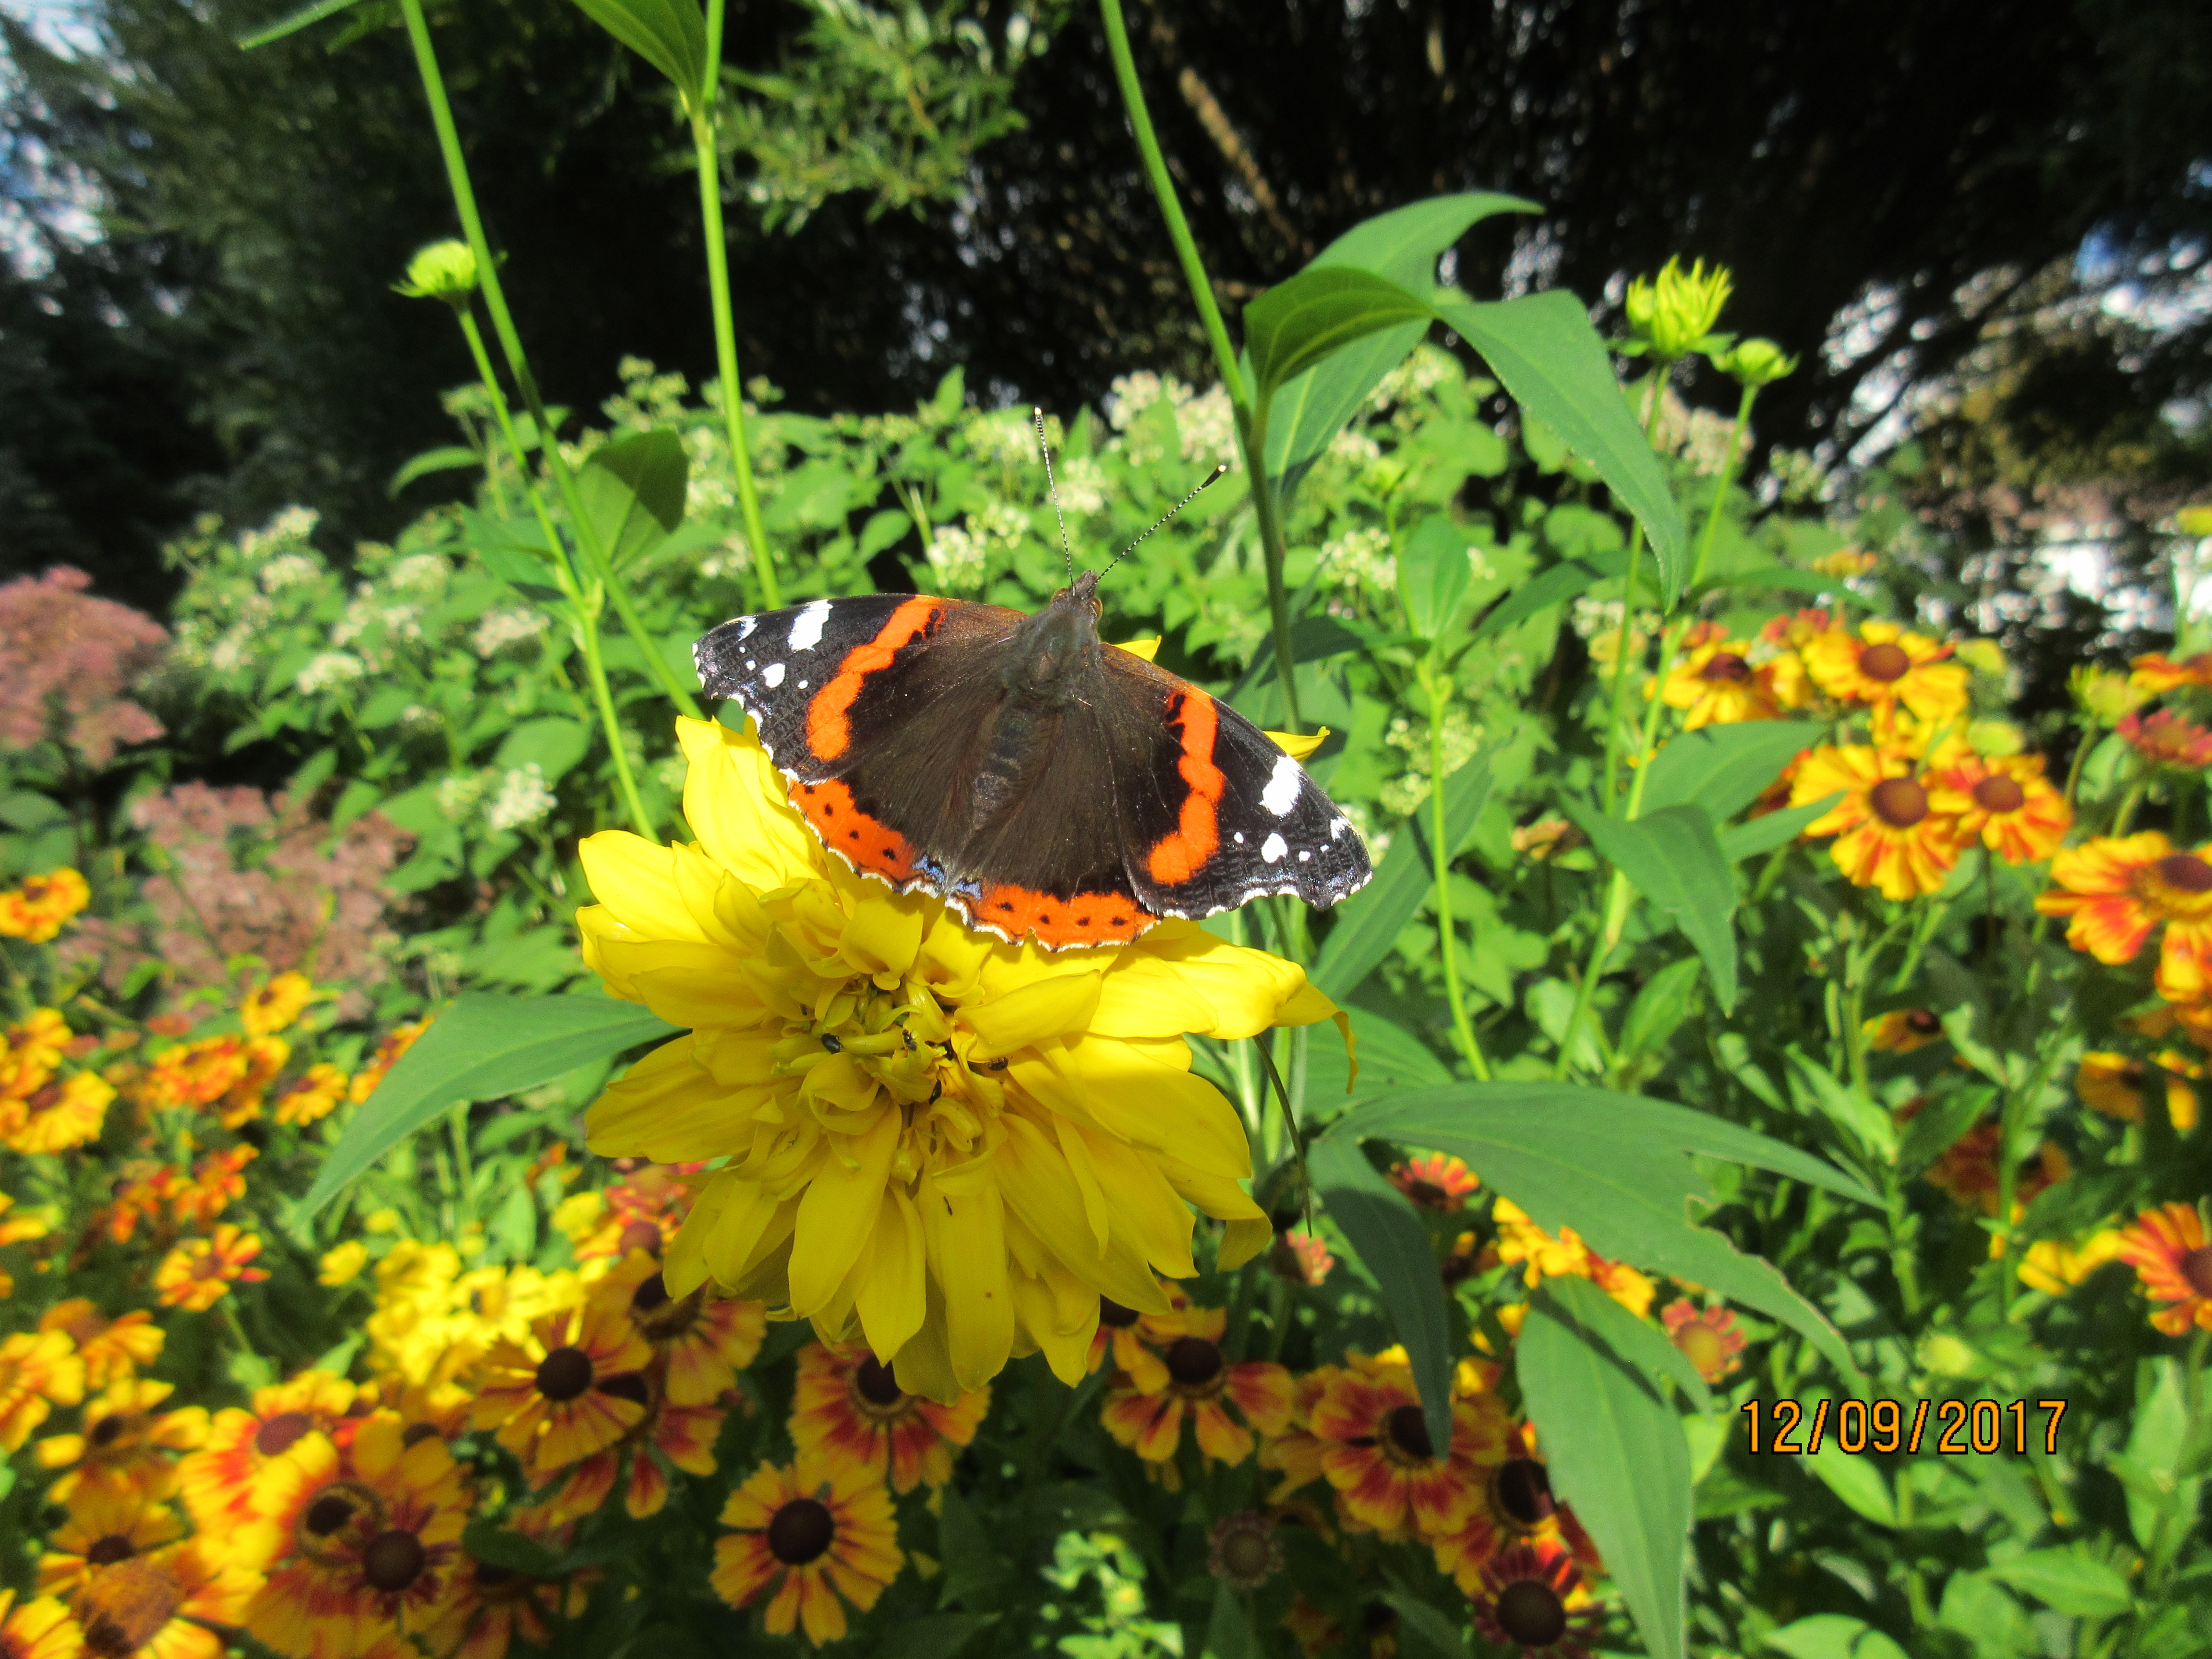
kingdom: Animalia
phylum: Arthropoda
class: Insecta
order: Lepidoptera
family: Nymphalidae
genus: Vanessa
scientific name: Vanessa atalanta
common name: Red admiral
